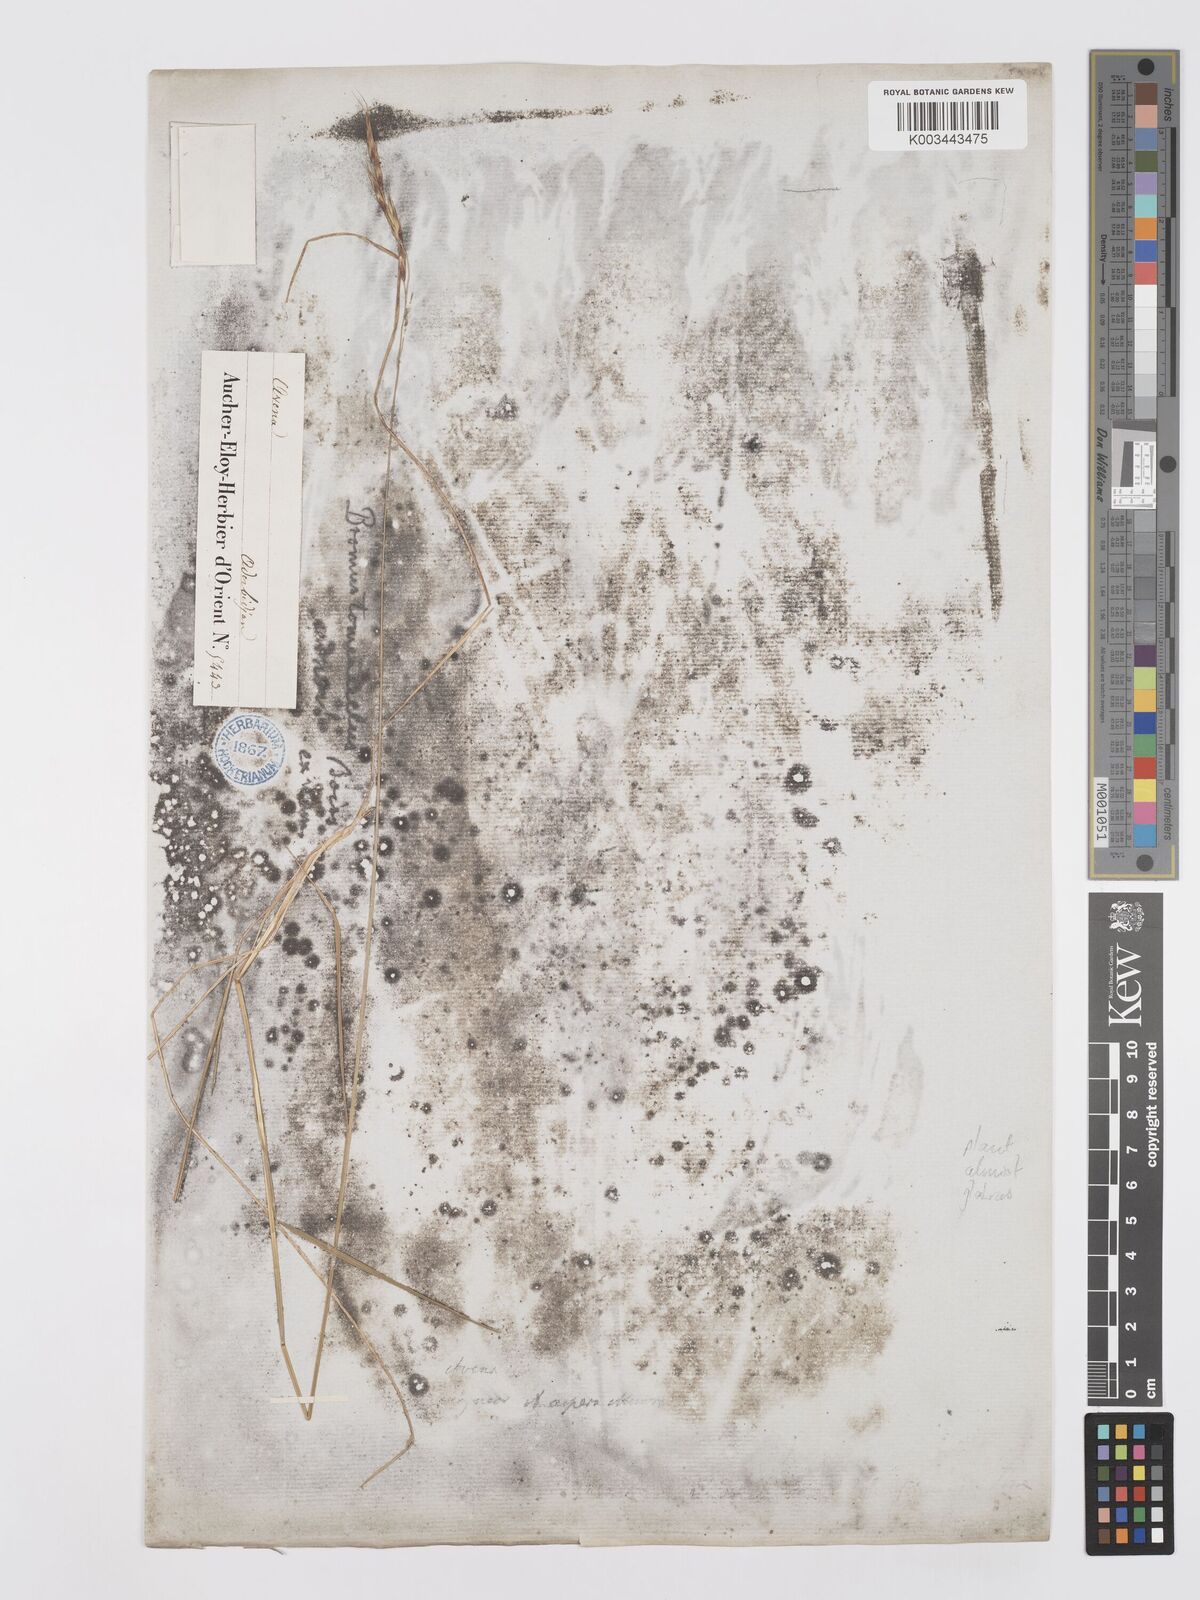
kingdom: Plantae
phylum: Tracheophyta
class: Liliopsida
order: Poales
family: Poaceae
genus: Bromus
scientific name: Bromus tomentellus
